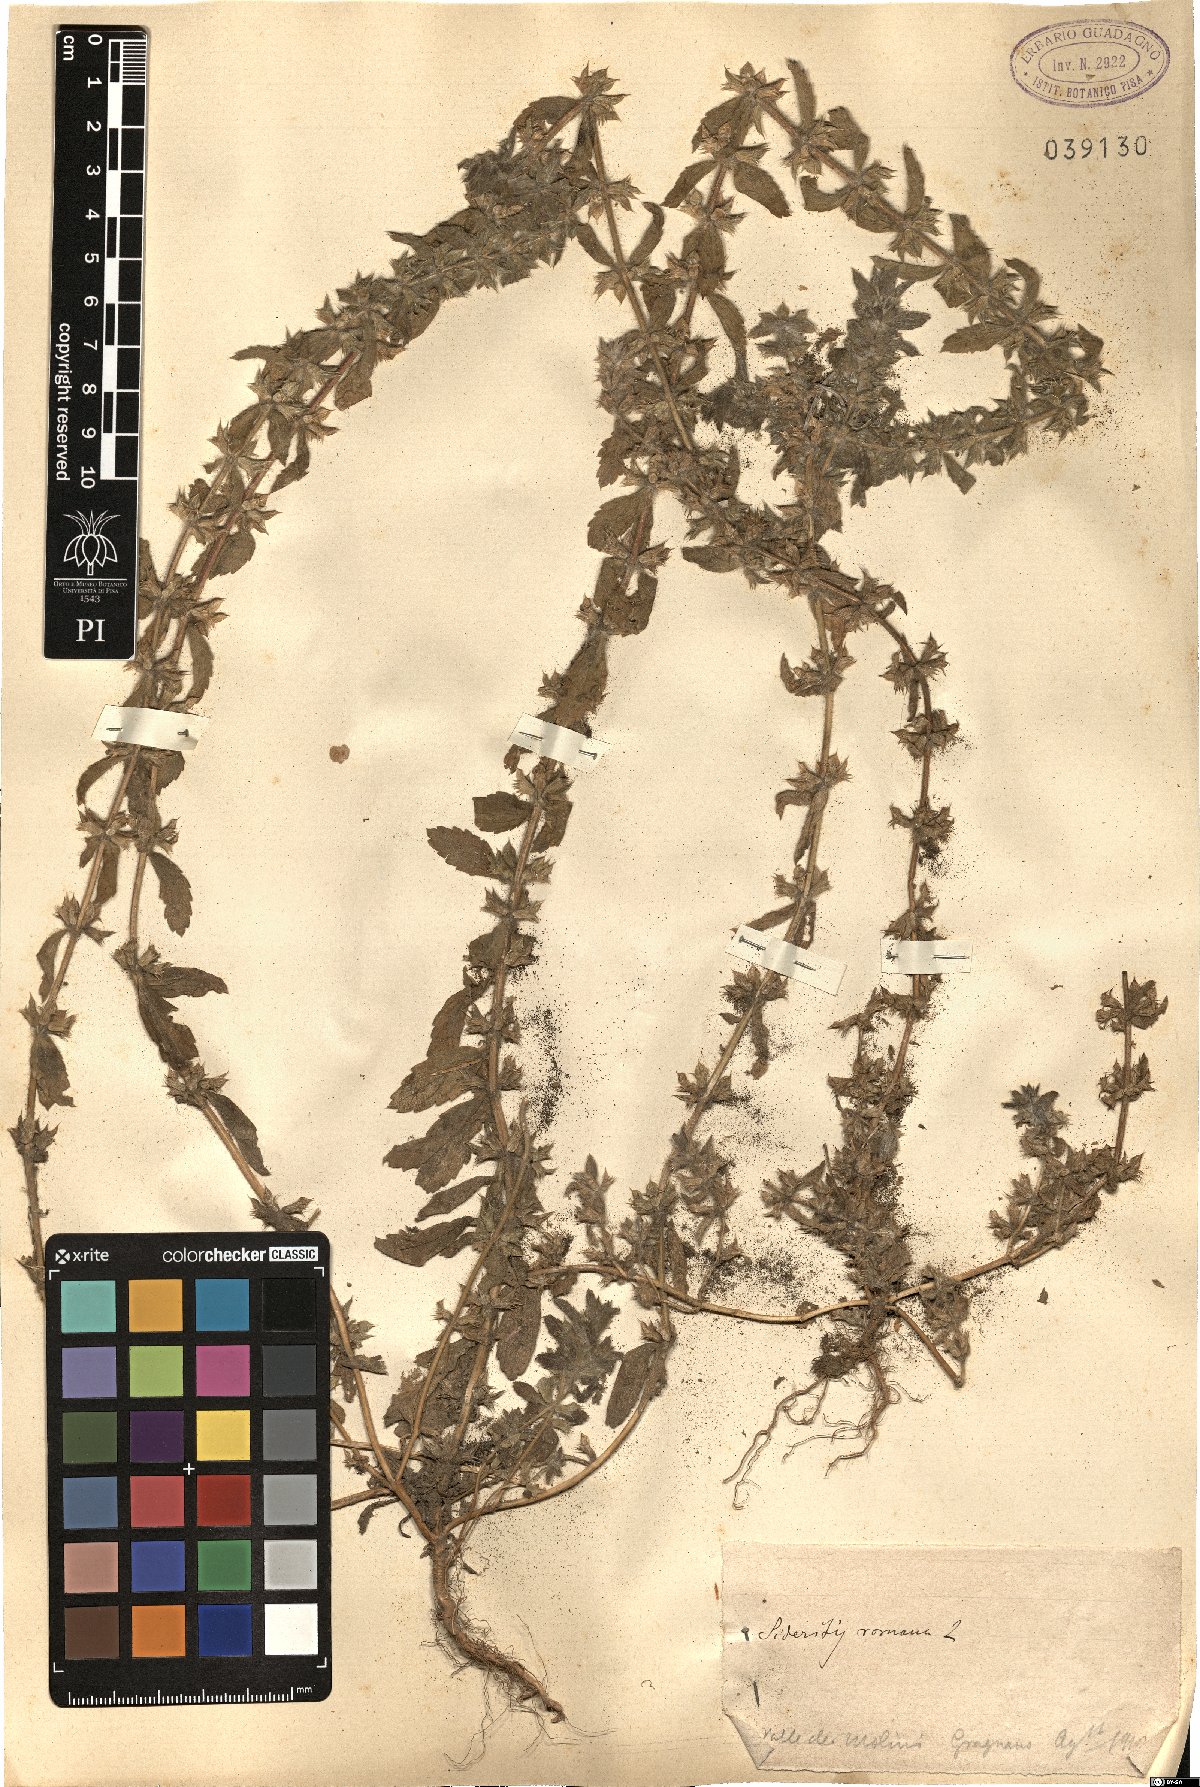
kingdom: Plantae
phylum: Tracheophyta
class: Magnoliopsida
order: Lamiales
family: Lamiaceae
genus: Sideritis
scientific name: Sideritis romana
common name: Simplebeak ironwort
